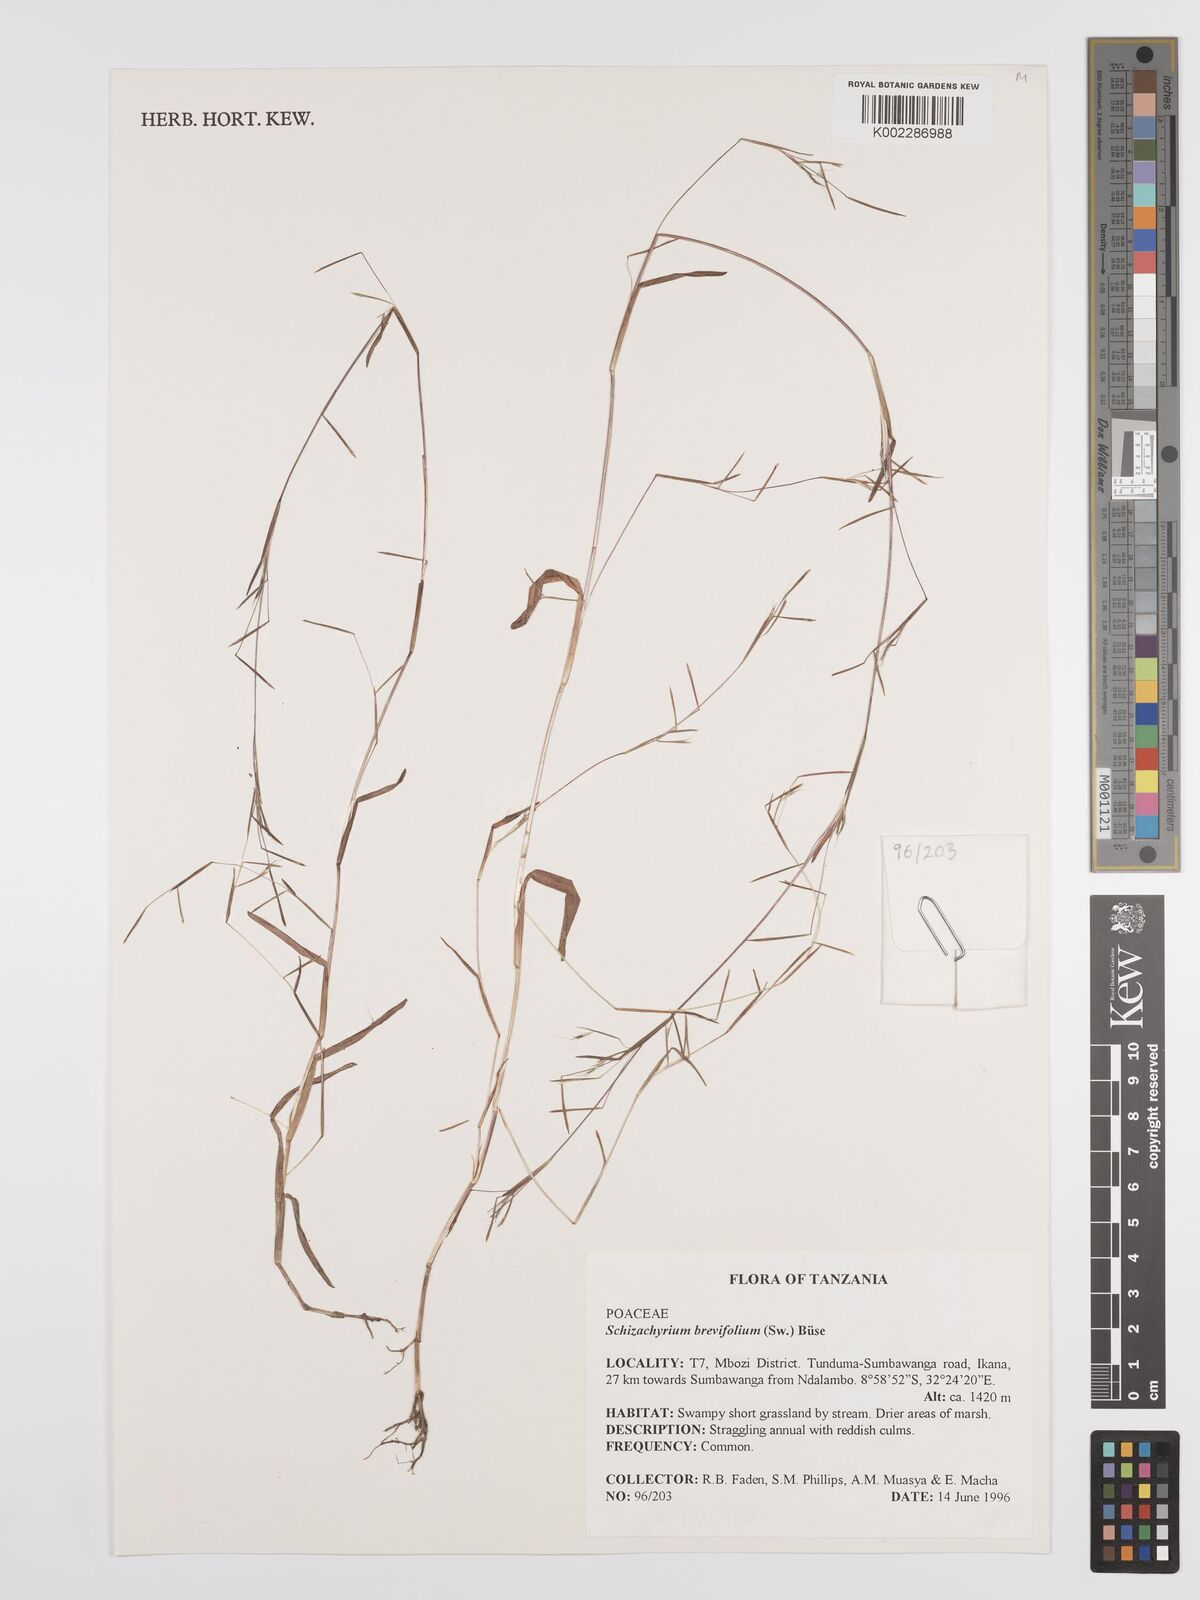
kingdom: Plantae
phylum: Tracheophyta
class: Liliopsida
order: Poales
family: Poaceae
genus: Schizachyrium
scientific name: Schizachyrium brevifolium
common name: Serillo dulce
